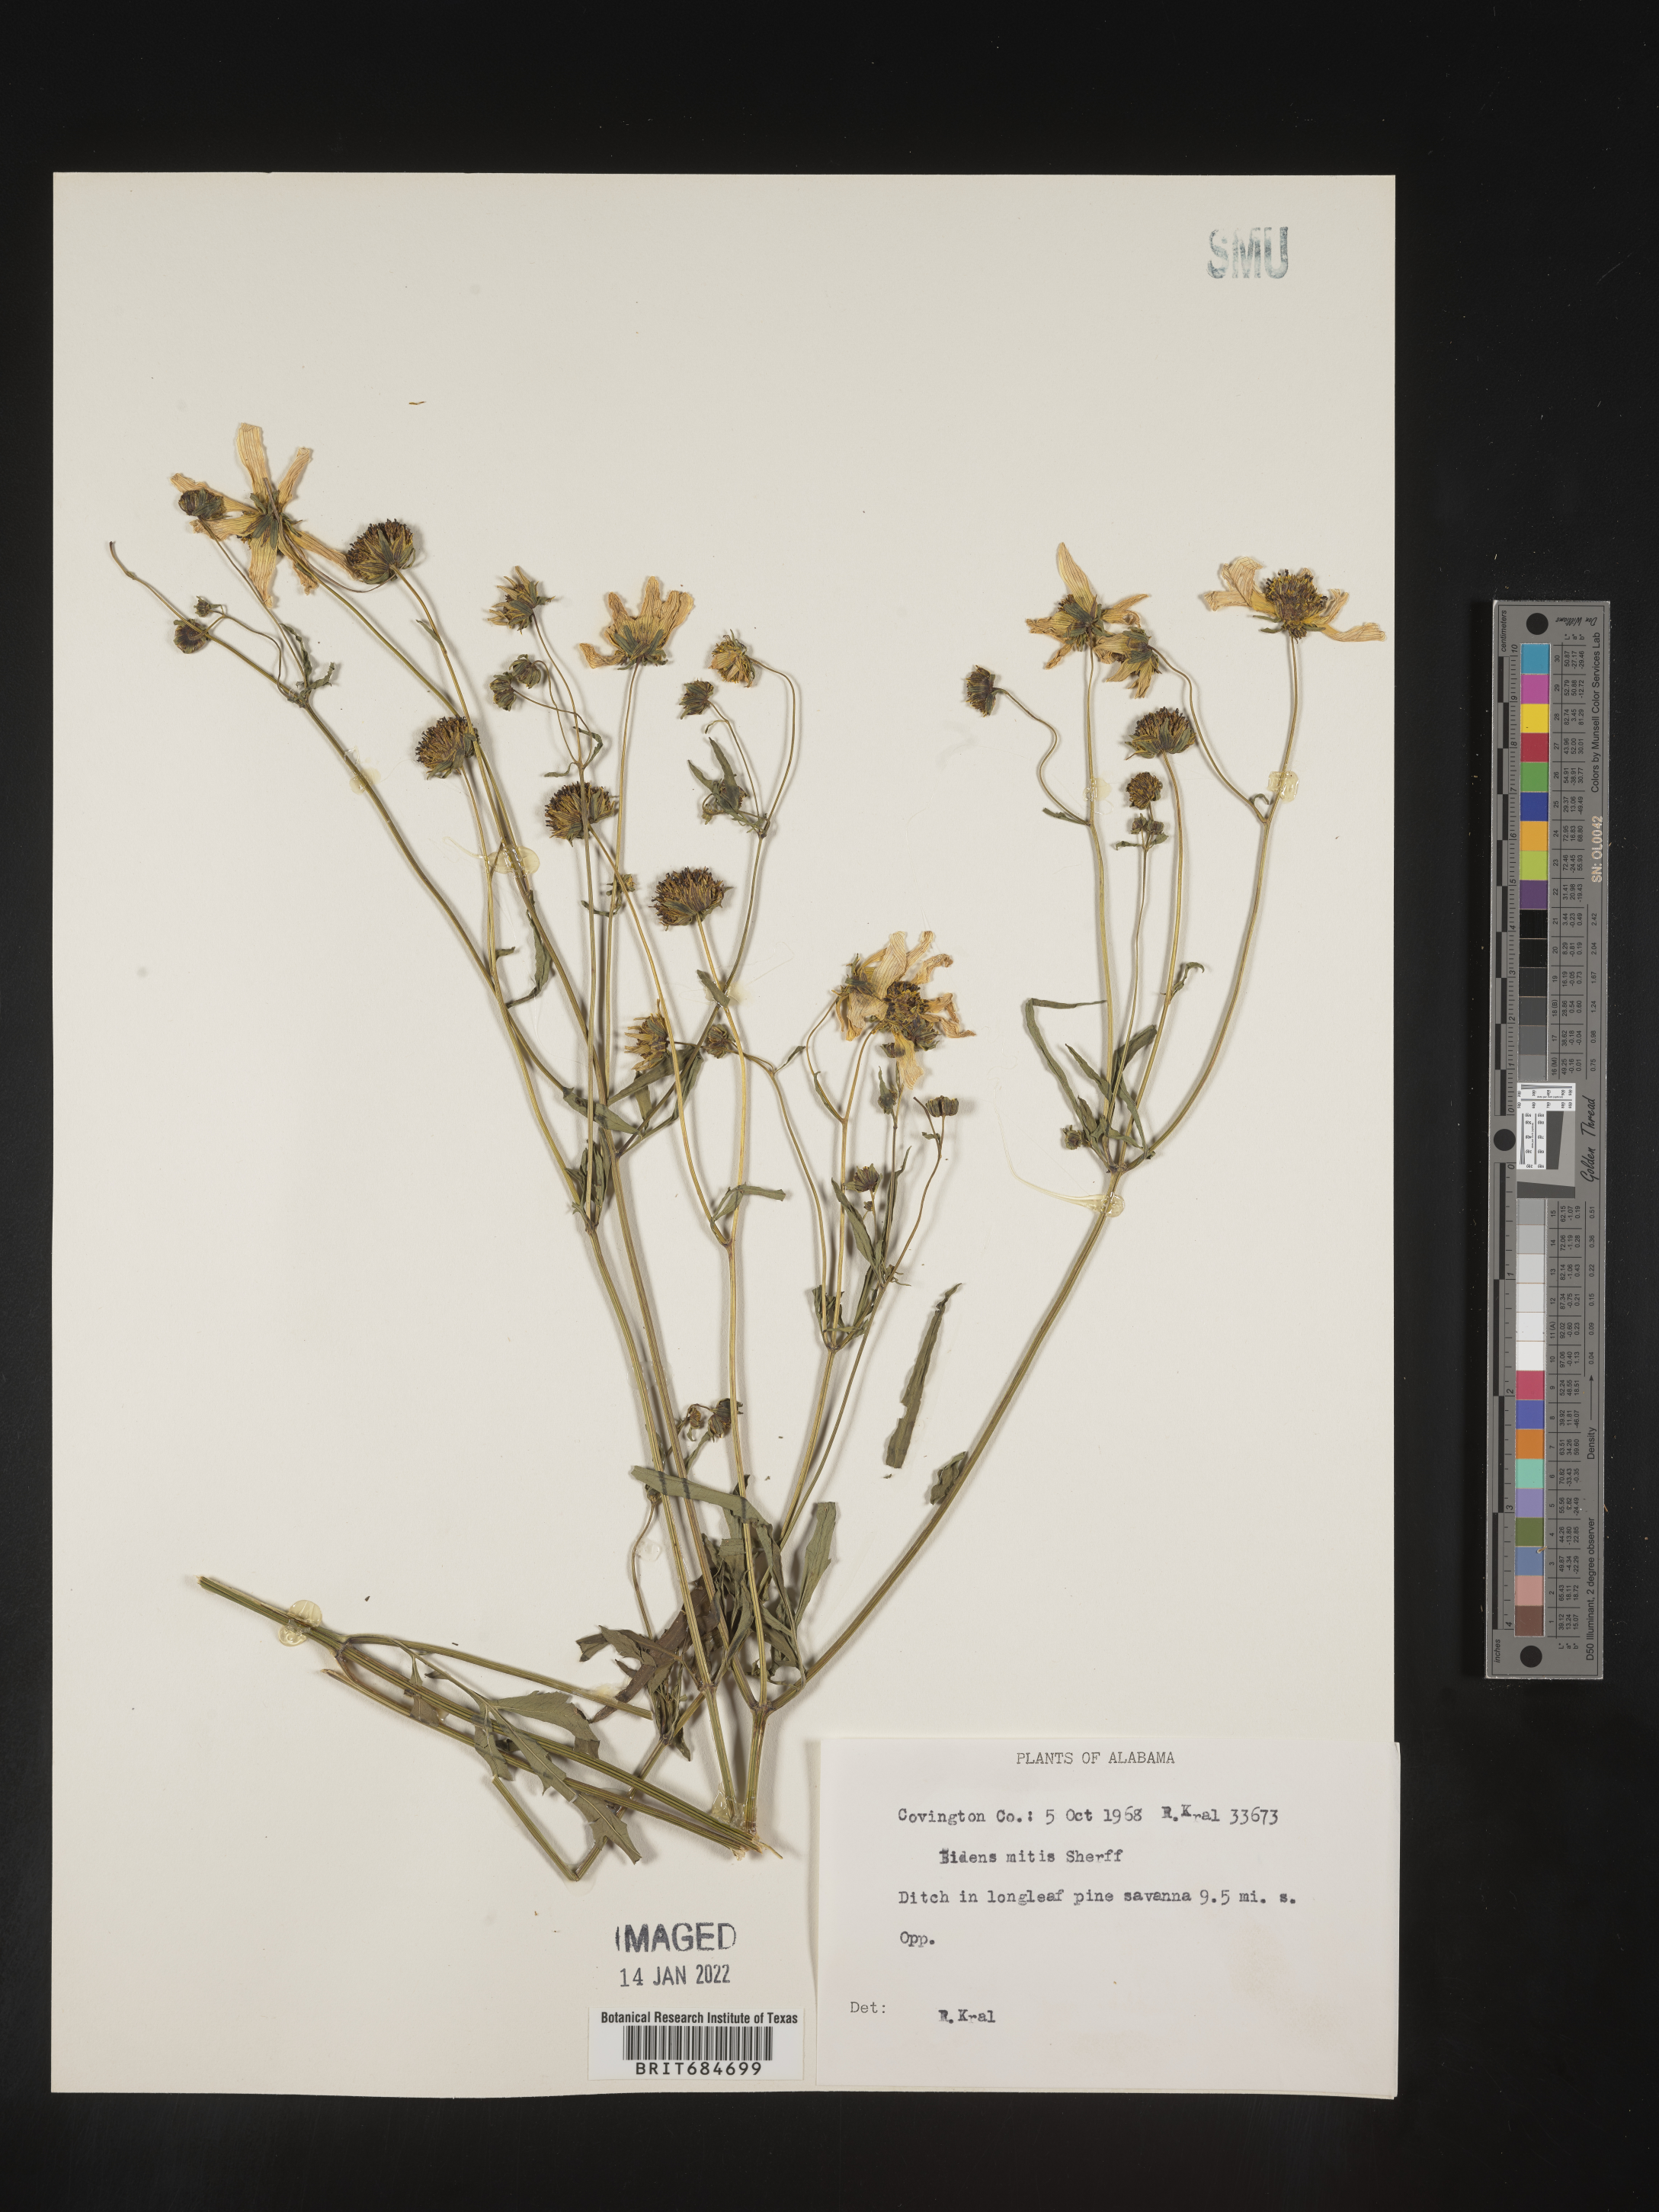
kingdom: Plantae
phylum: Tracheophyta
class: Magnoliopsida
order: Asterales
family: Asteraceae
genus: Bidens
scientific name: Bidens mitis
